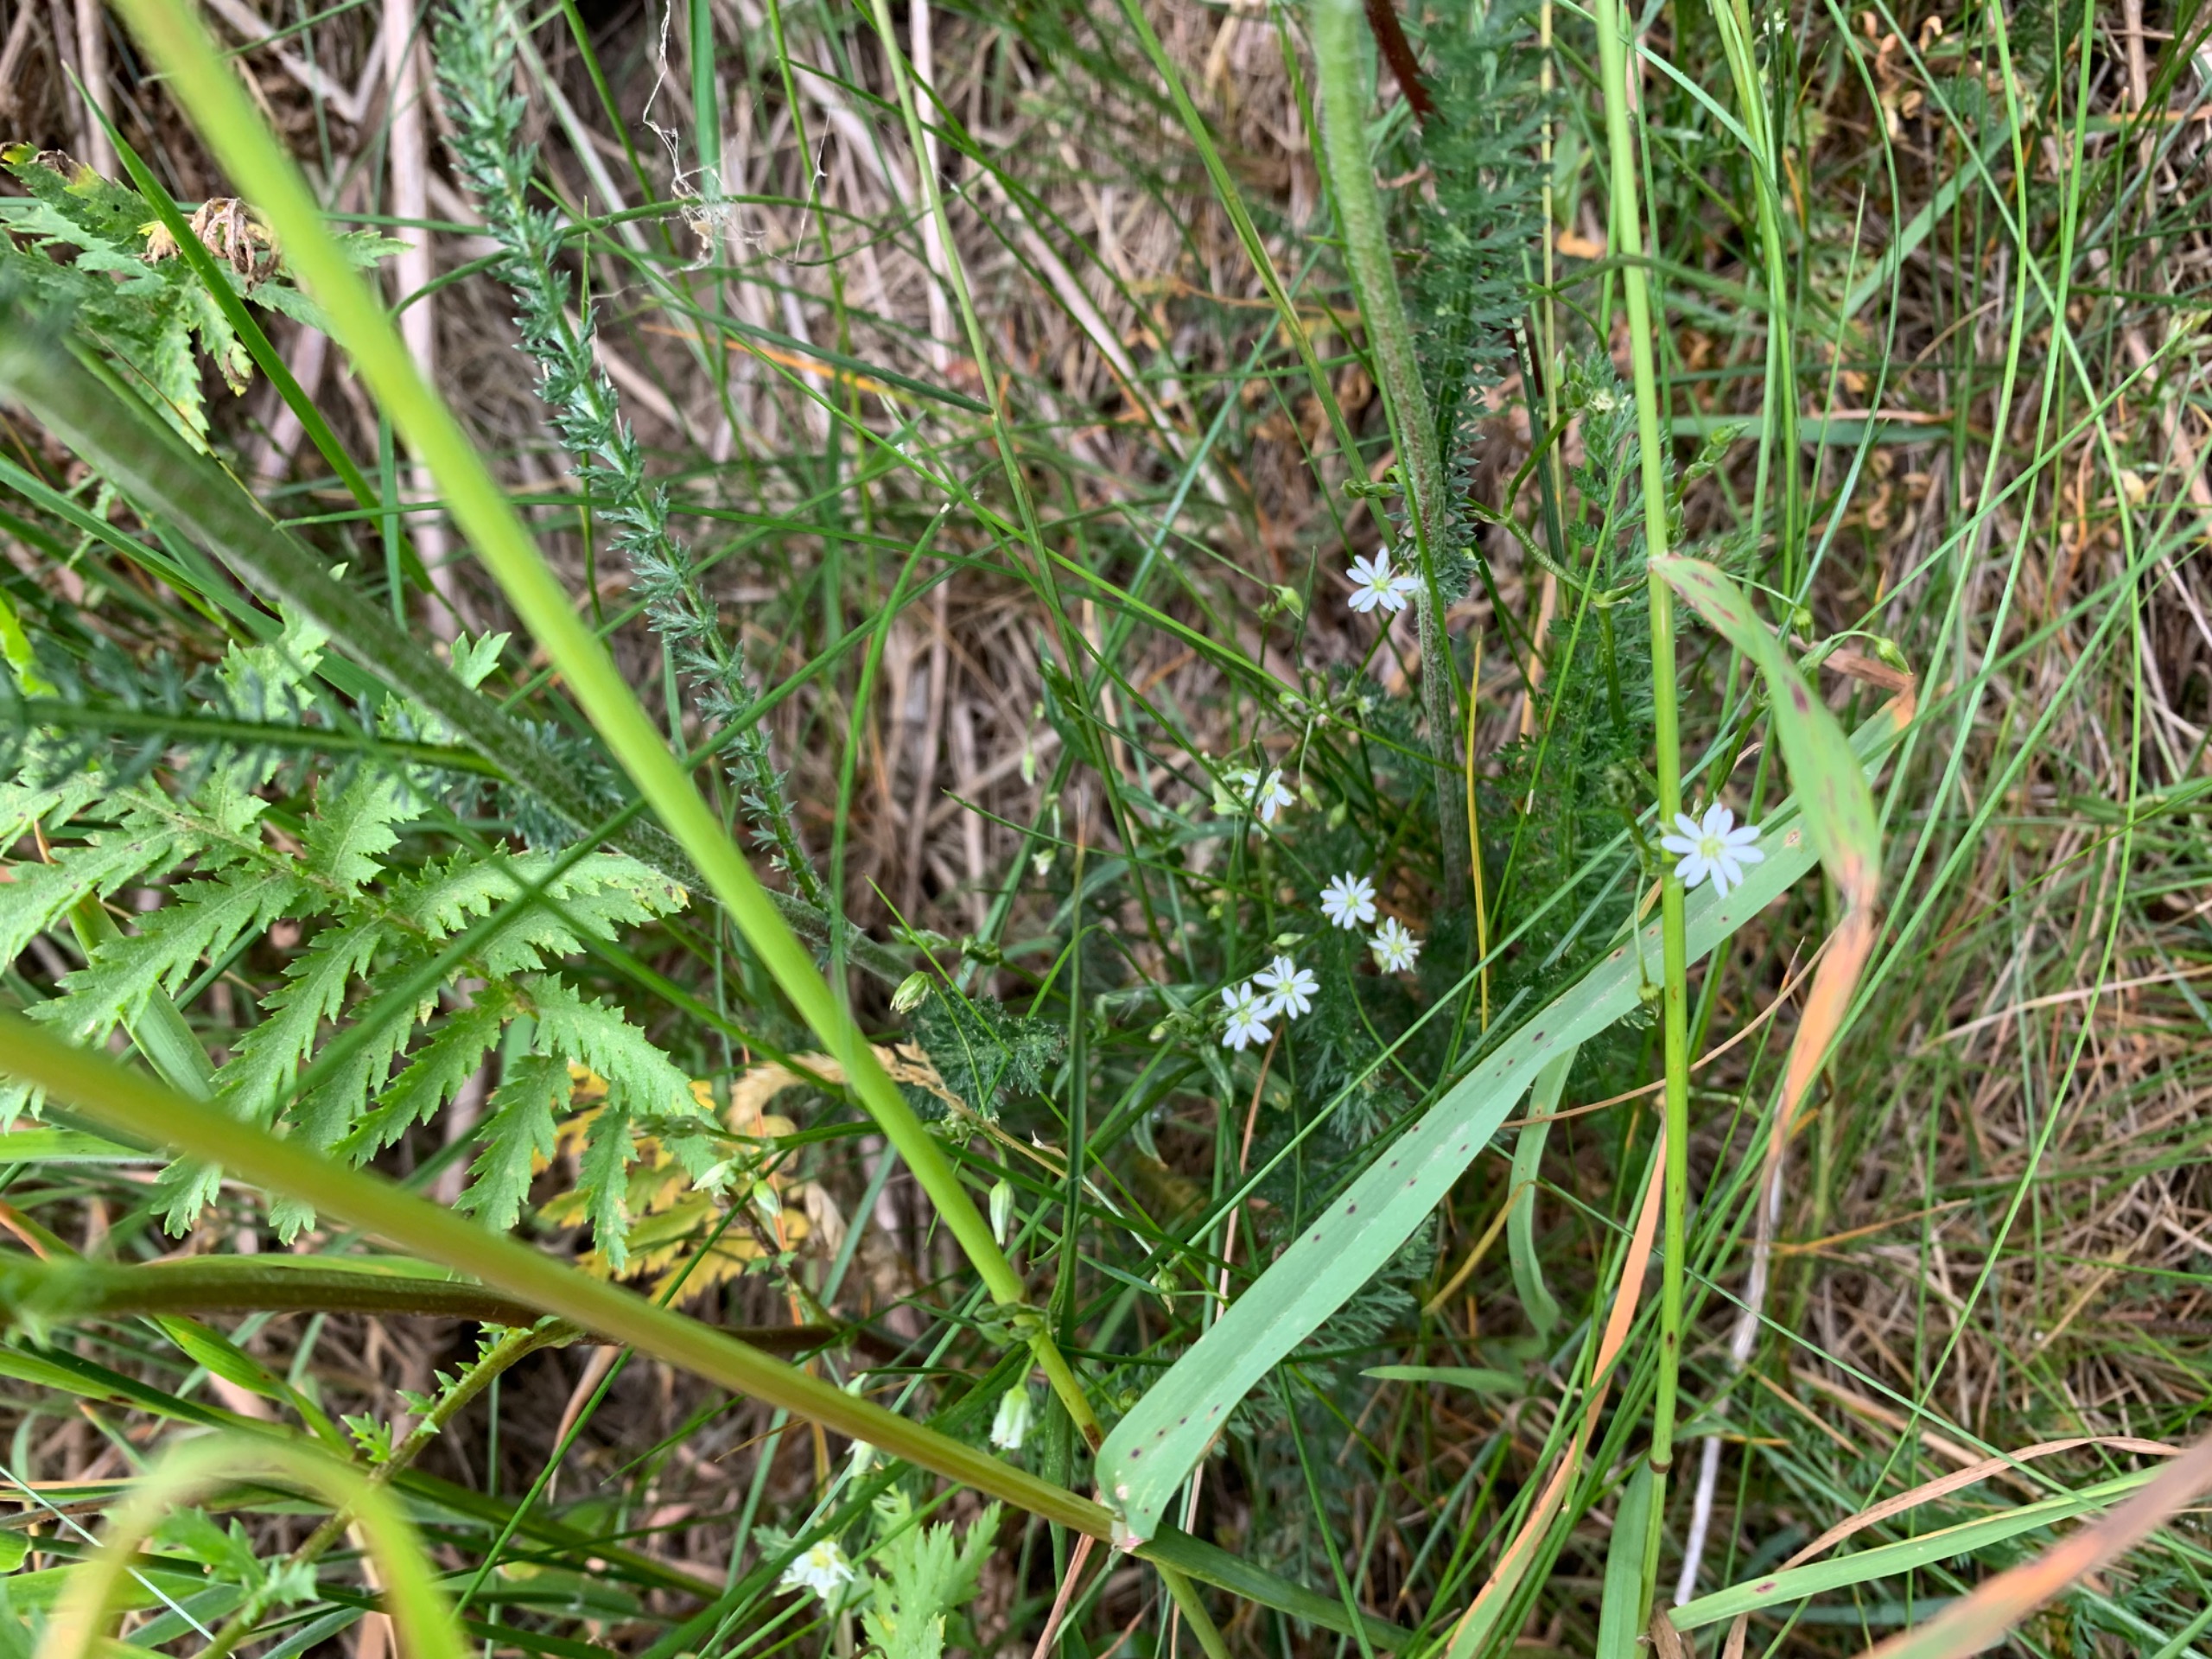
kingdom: Plantae
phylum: Tracheophyta
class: Magnoliopsida
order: Caryophyllales
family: Caryophyllaceae
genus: Stellaria
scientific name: Stellaria graminea
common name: Græsbladet fladstjerne
